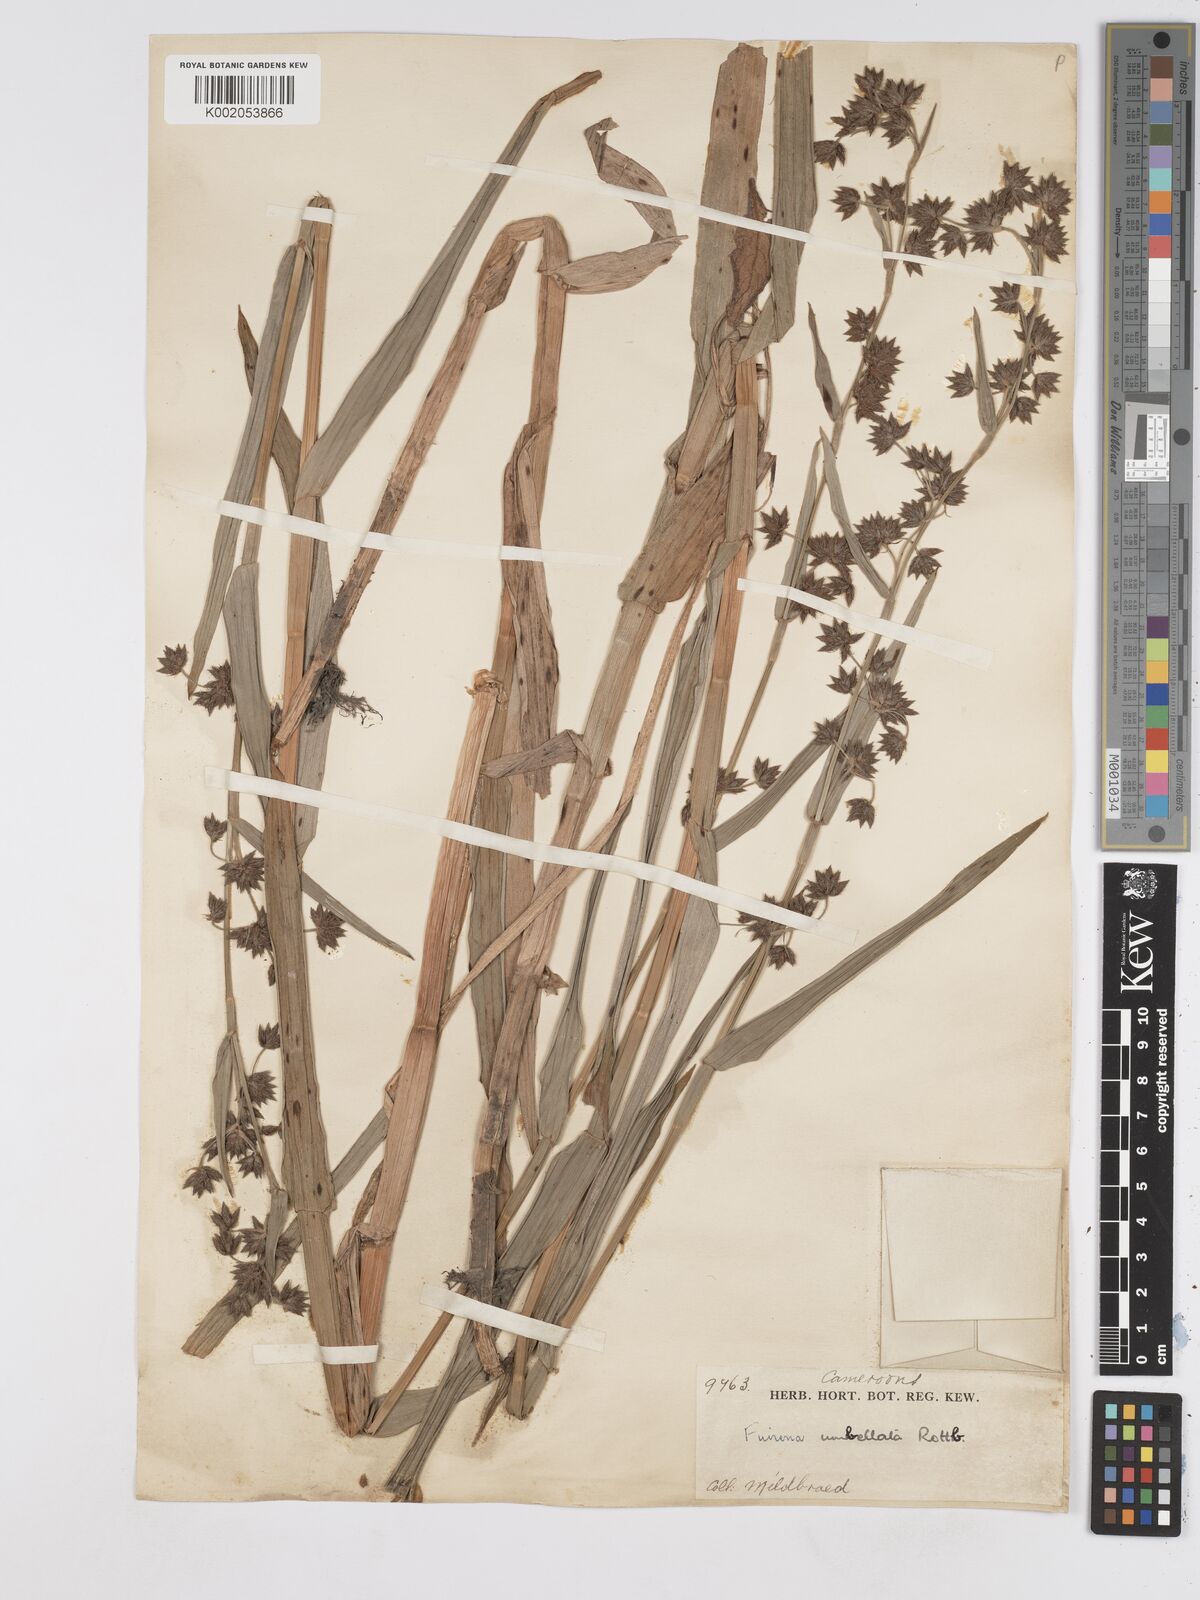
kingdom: Plantae
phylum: Tracheophyta
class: Liliopsida
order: Poales
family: Cyperaceae
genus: Fuirena
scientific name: Fuirena umbellata
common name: Yefen
